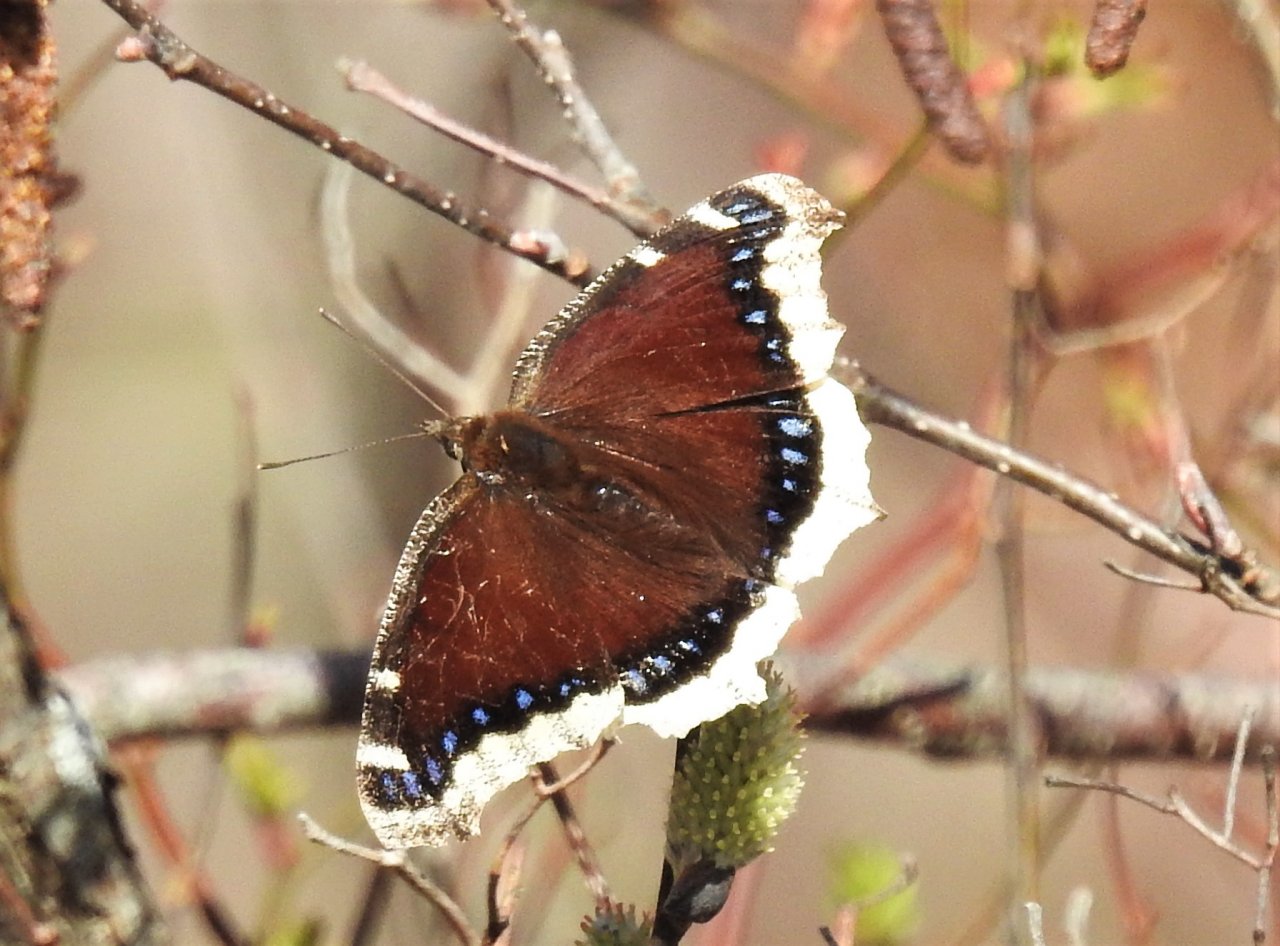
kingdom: Animalia
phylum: Arthropoda
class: Insecta
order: Lepidoptera
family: Nymphalidae
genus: Nymphalis
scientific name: Nymphalis antiopa
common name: Mourning Cloak
